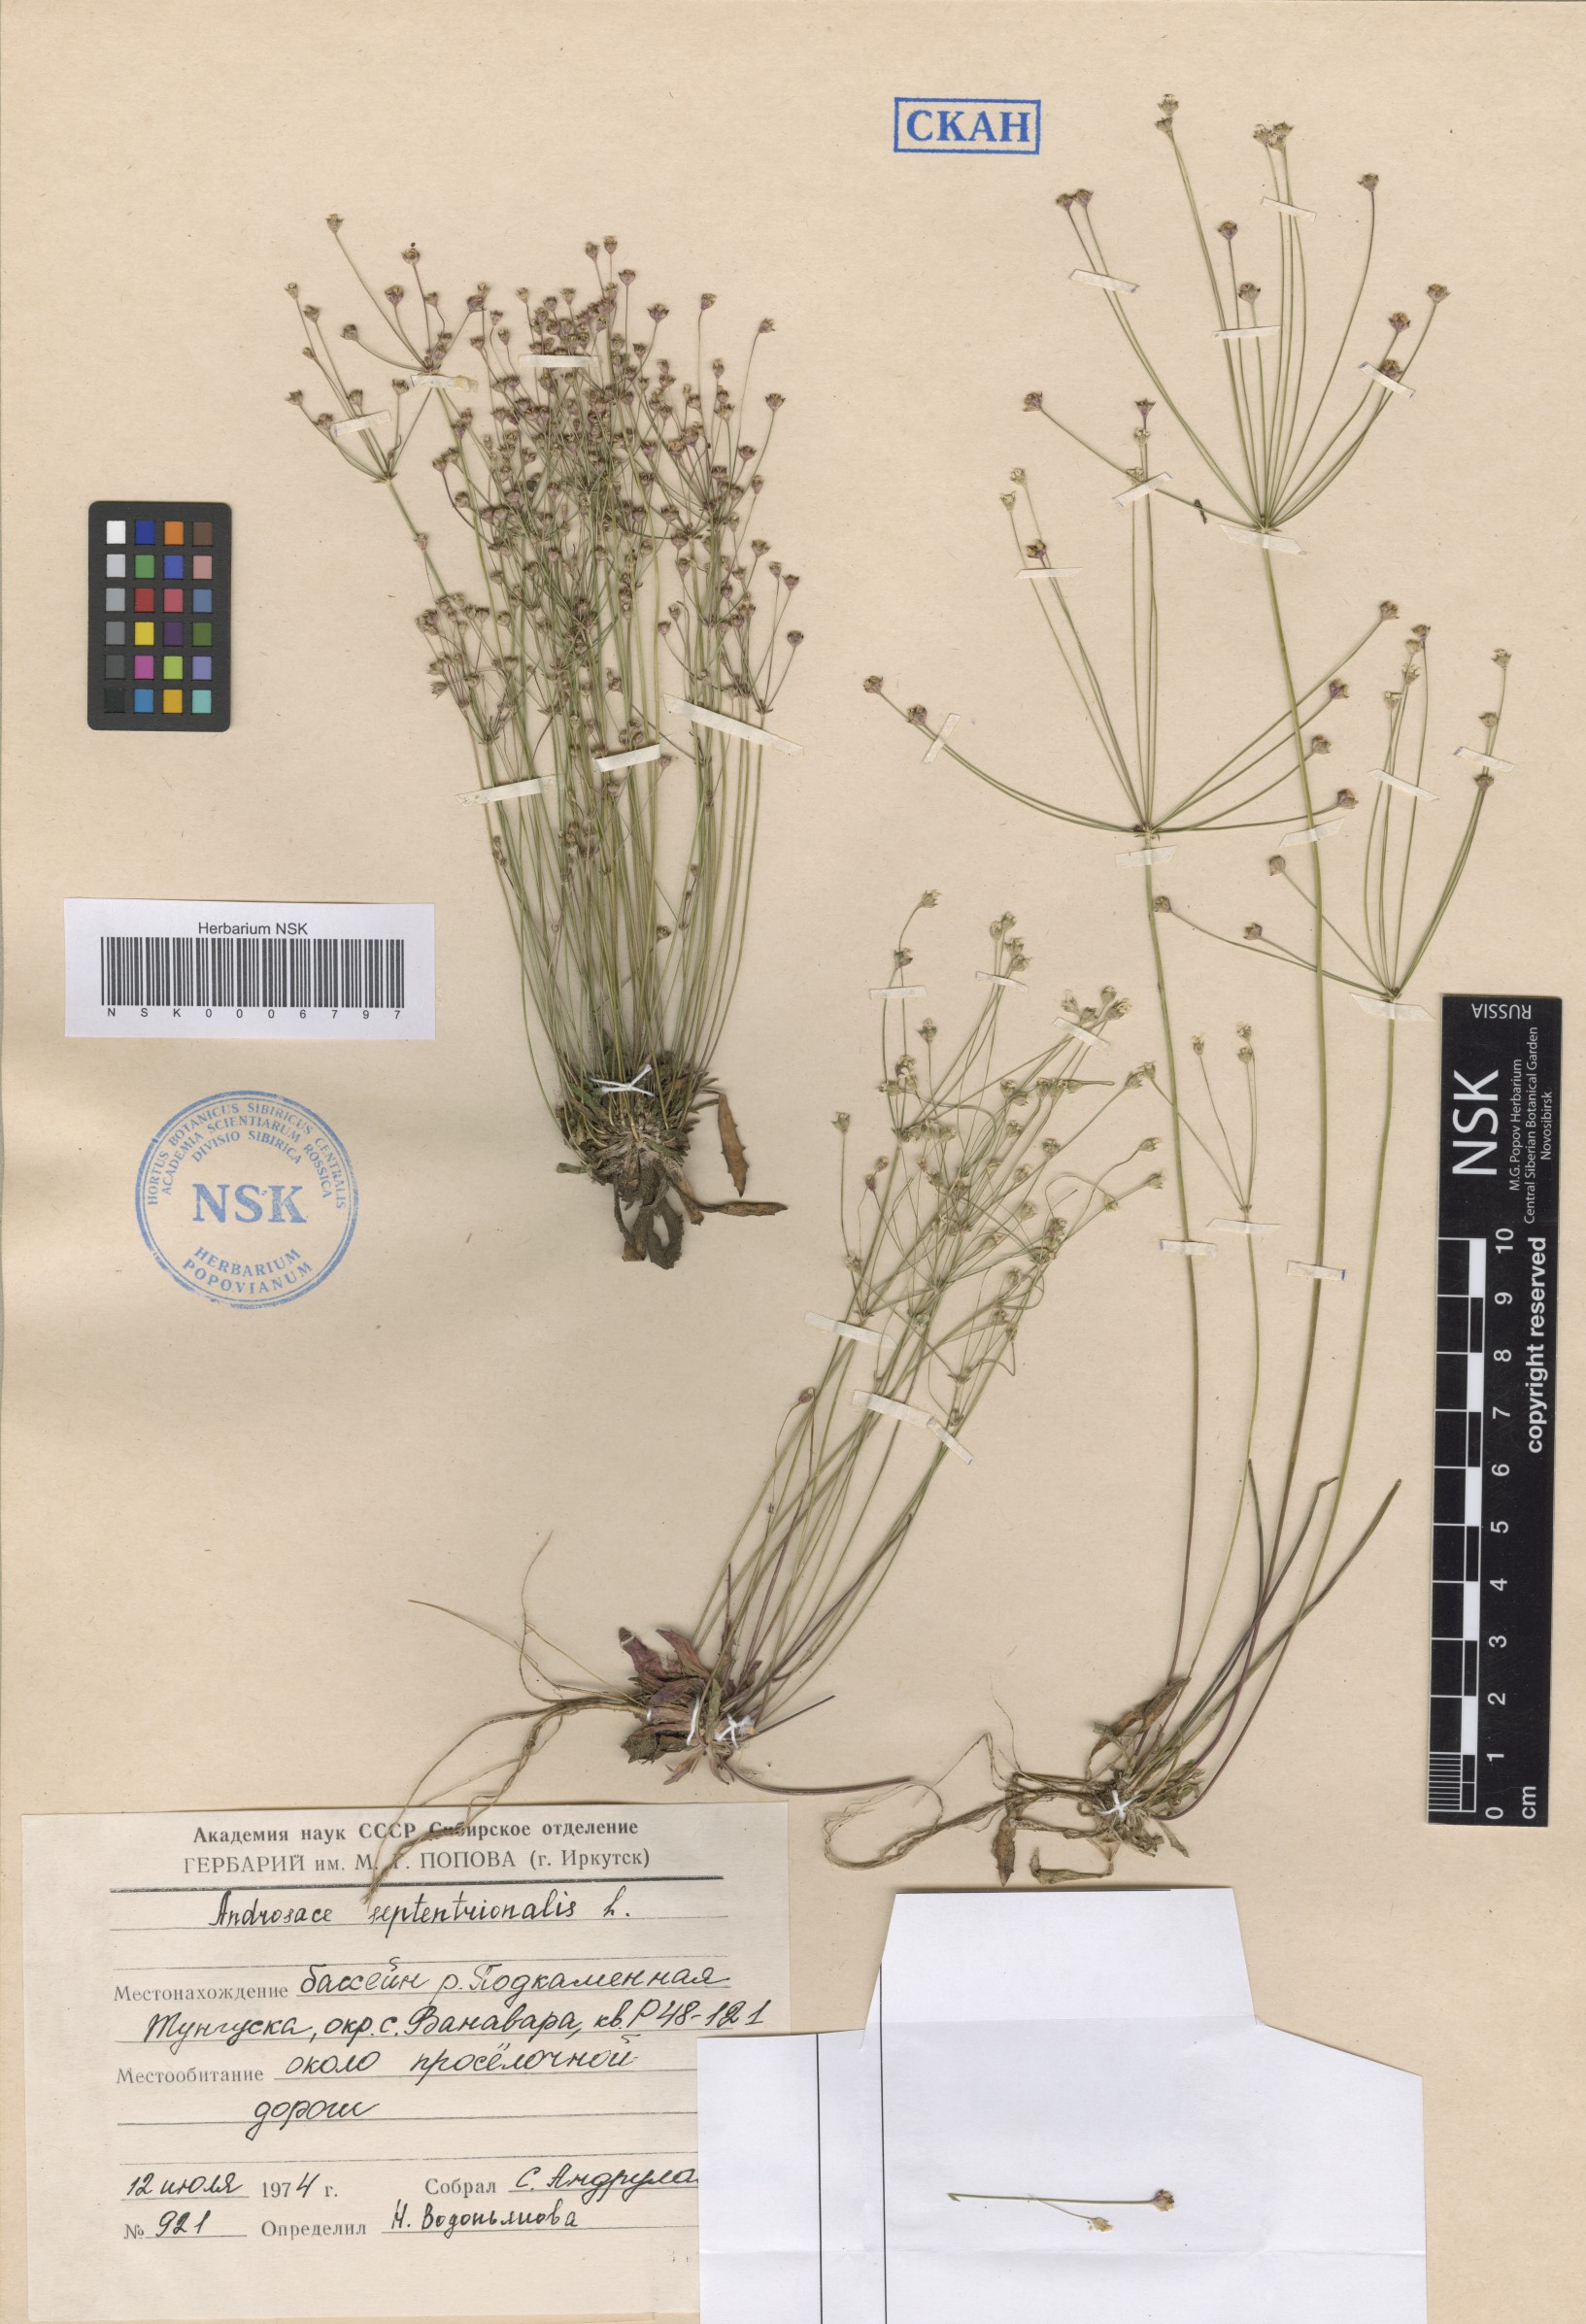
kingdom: Plantae
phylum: Tracheophyta
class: Magnoliopsida
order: Ericales
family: Primulaceae
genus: Androsace
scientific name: Androsace septentrionalis
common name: Hairy northern fairy-candelabra
